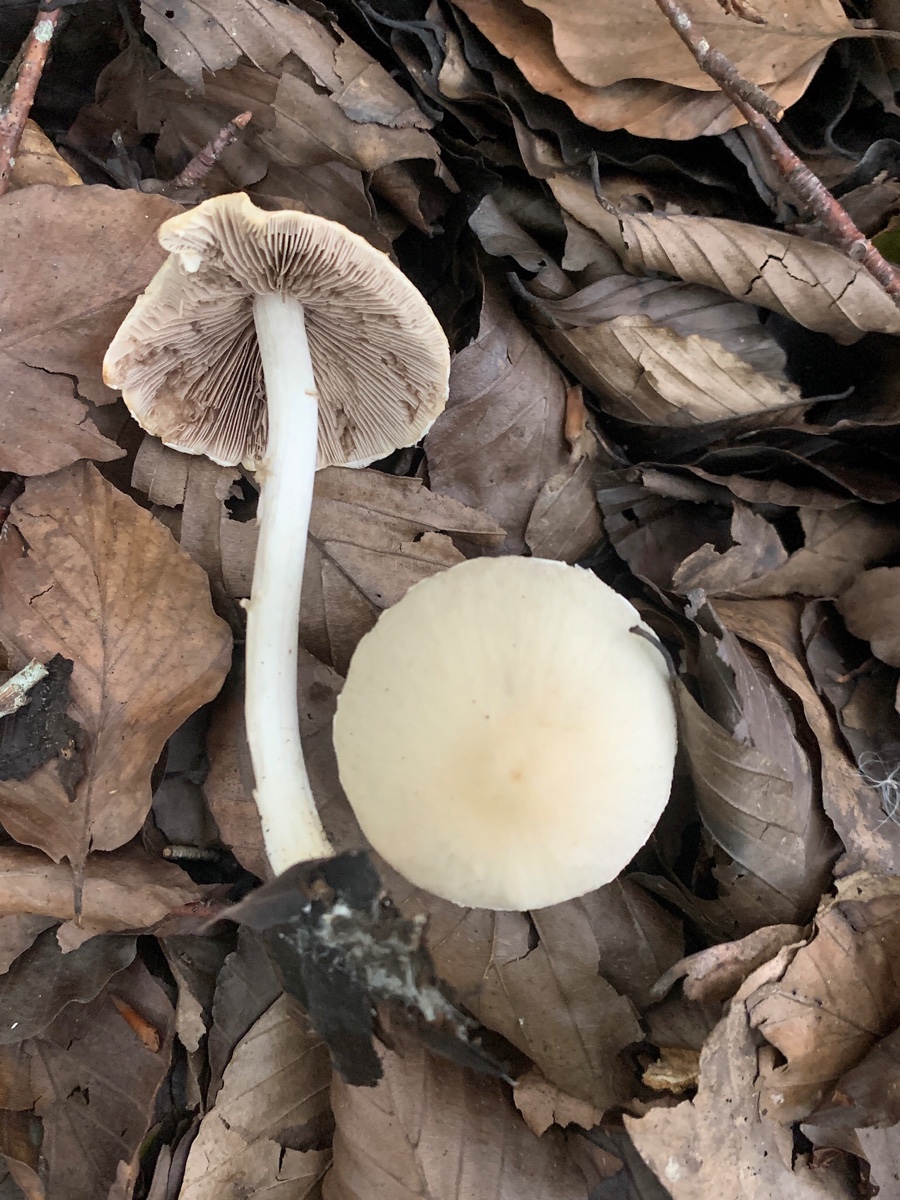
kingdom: Fungi
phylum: Basidiomycota
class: Agaricomycetes
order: Agaricales
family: Psathyrellaceae
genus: Candolleomyces
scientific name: Candolleomyces candolleanus
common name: Candolles mørkhat
